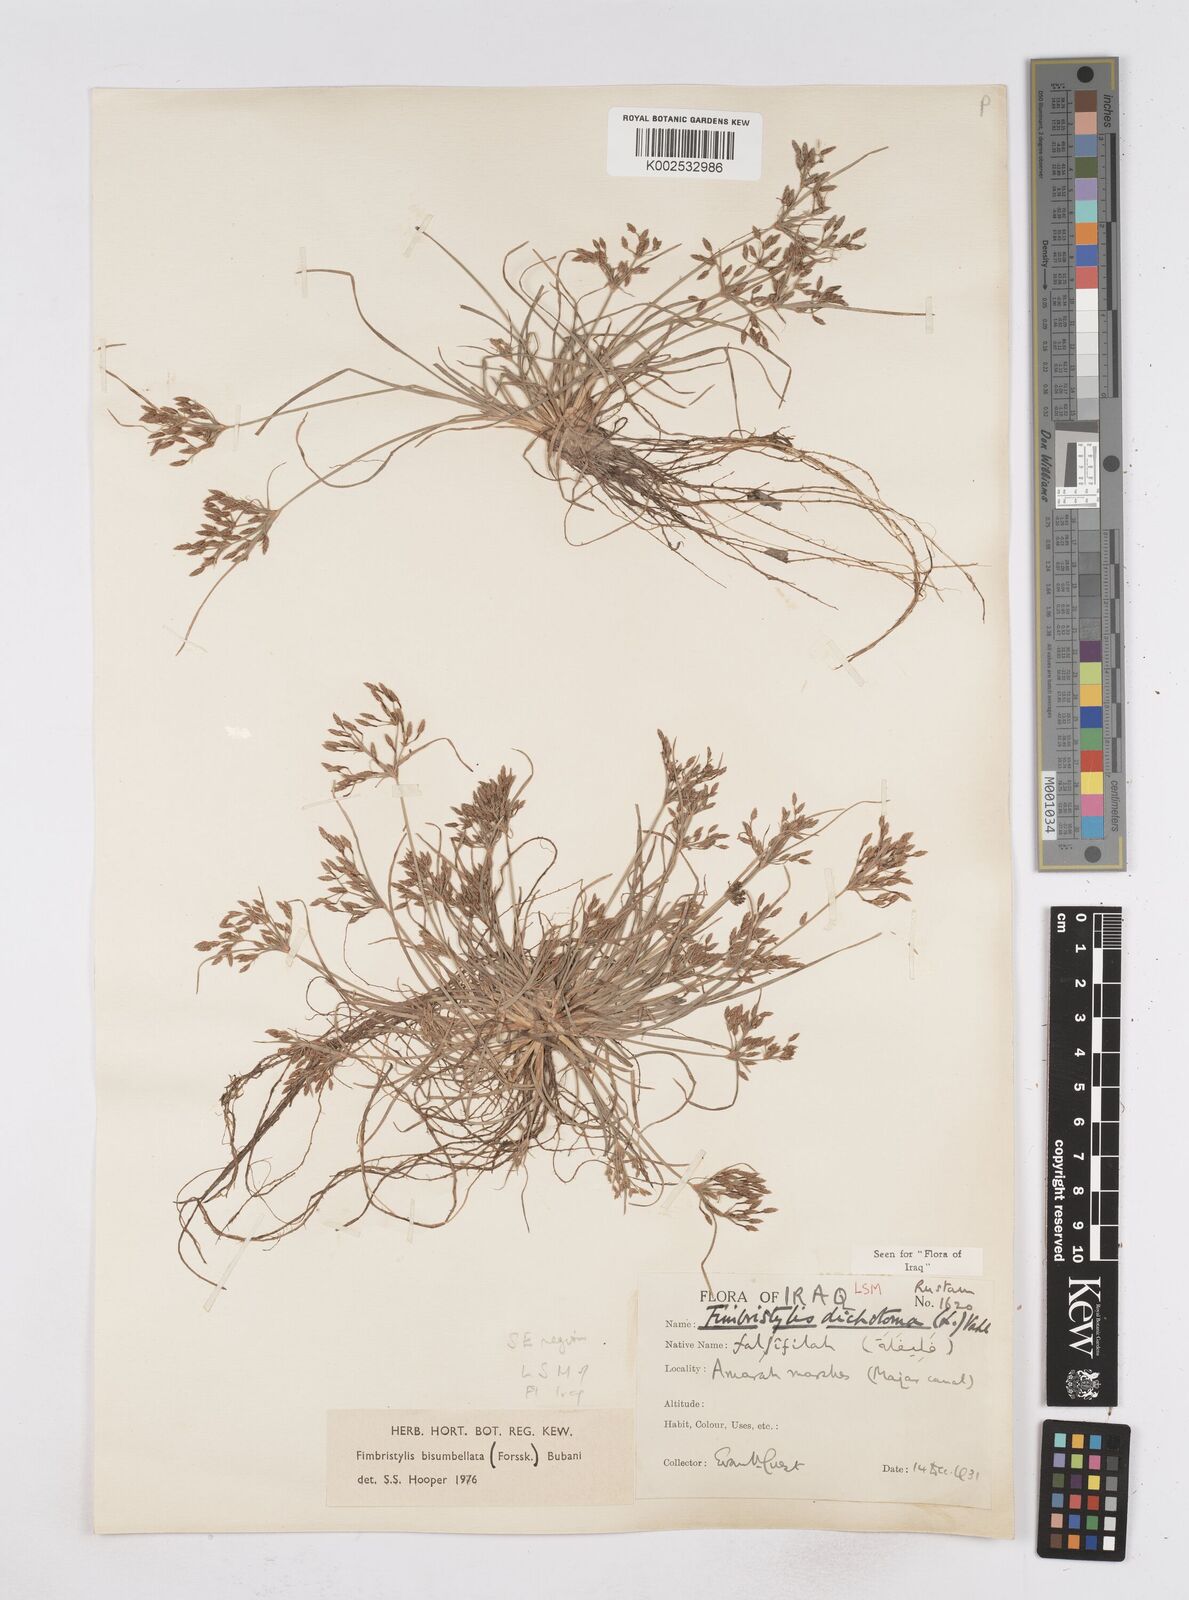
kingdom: Plantae
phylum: Tracheophyta
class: Liliopsida
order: Poales
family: Cyperaceae
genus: Fimbristylis
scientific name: Fimbristylis bisumbellata
